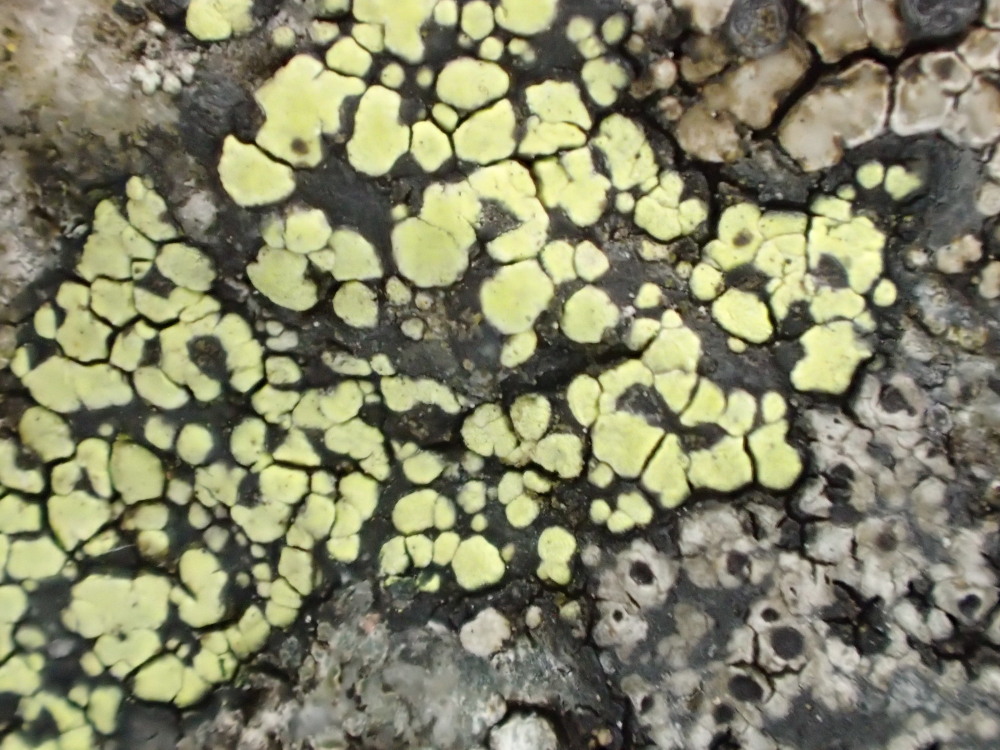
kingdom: Fungi
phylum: Ascomycota
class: Lecanoromycetes
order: Rhizocarpales
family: Rhizocarpaceae
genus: Rhizocarpon
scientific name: Rhizocarpon lecanorinum
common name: krave-landkortlav
